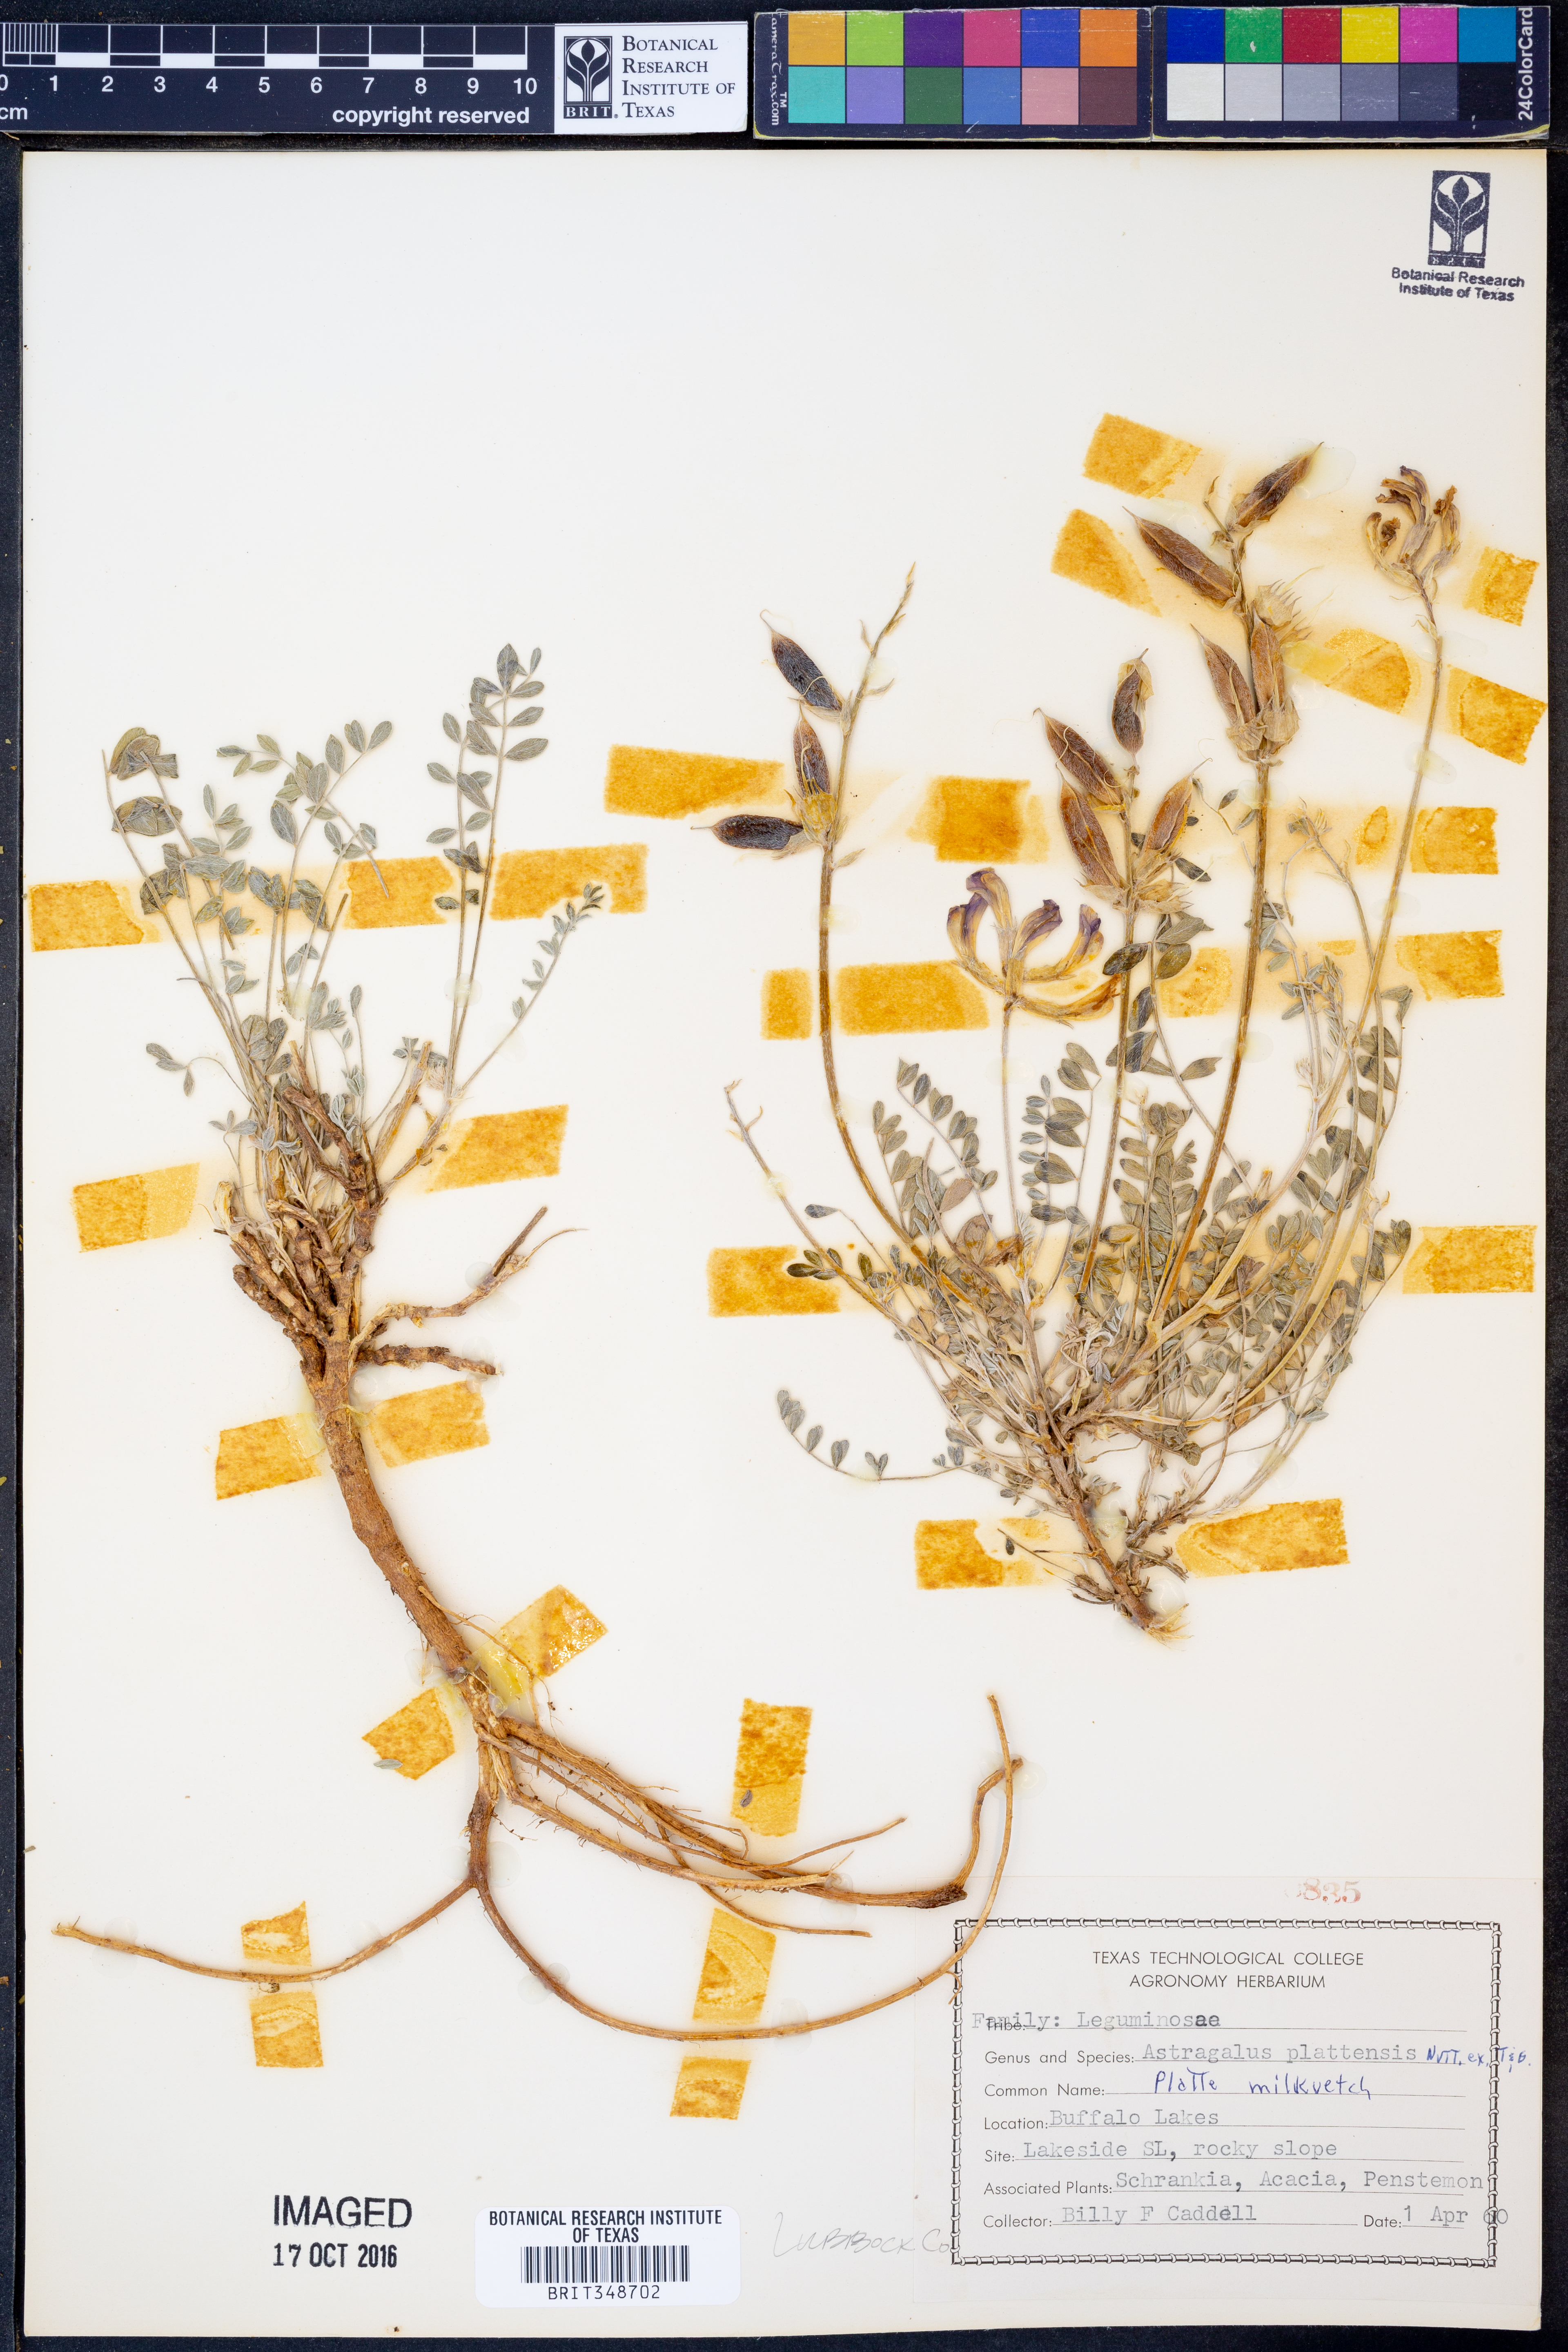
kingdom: Plantae
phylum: Tracheophyta
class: Magnoliopsida
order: Fabales
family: Fabaceae
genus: Astragalus
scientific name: Astragalus plattensis
